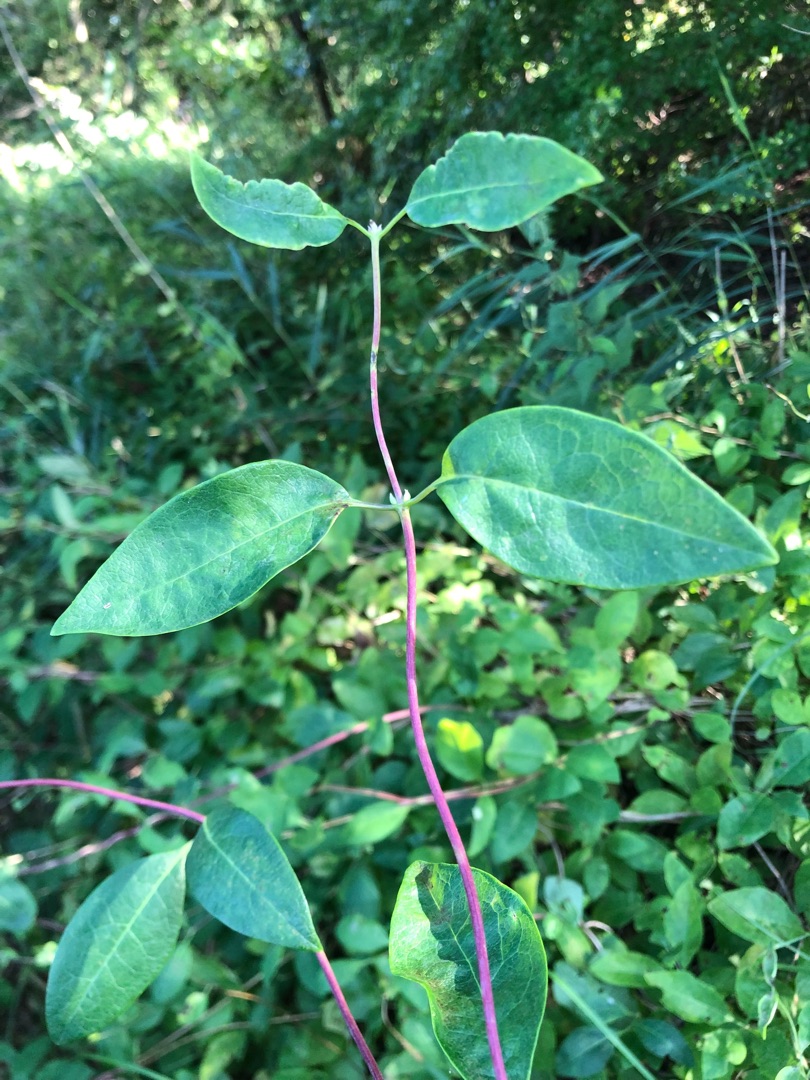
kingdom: Plantae
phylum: Tracheophyta
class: Magnoliopsida
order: Dipsacales
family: Caprifoliaceae
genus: Lonicera
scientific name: Lonicera periclymenum
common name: Almindelig gedeblad
